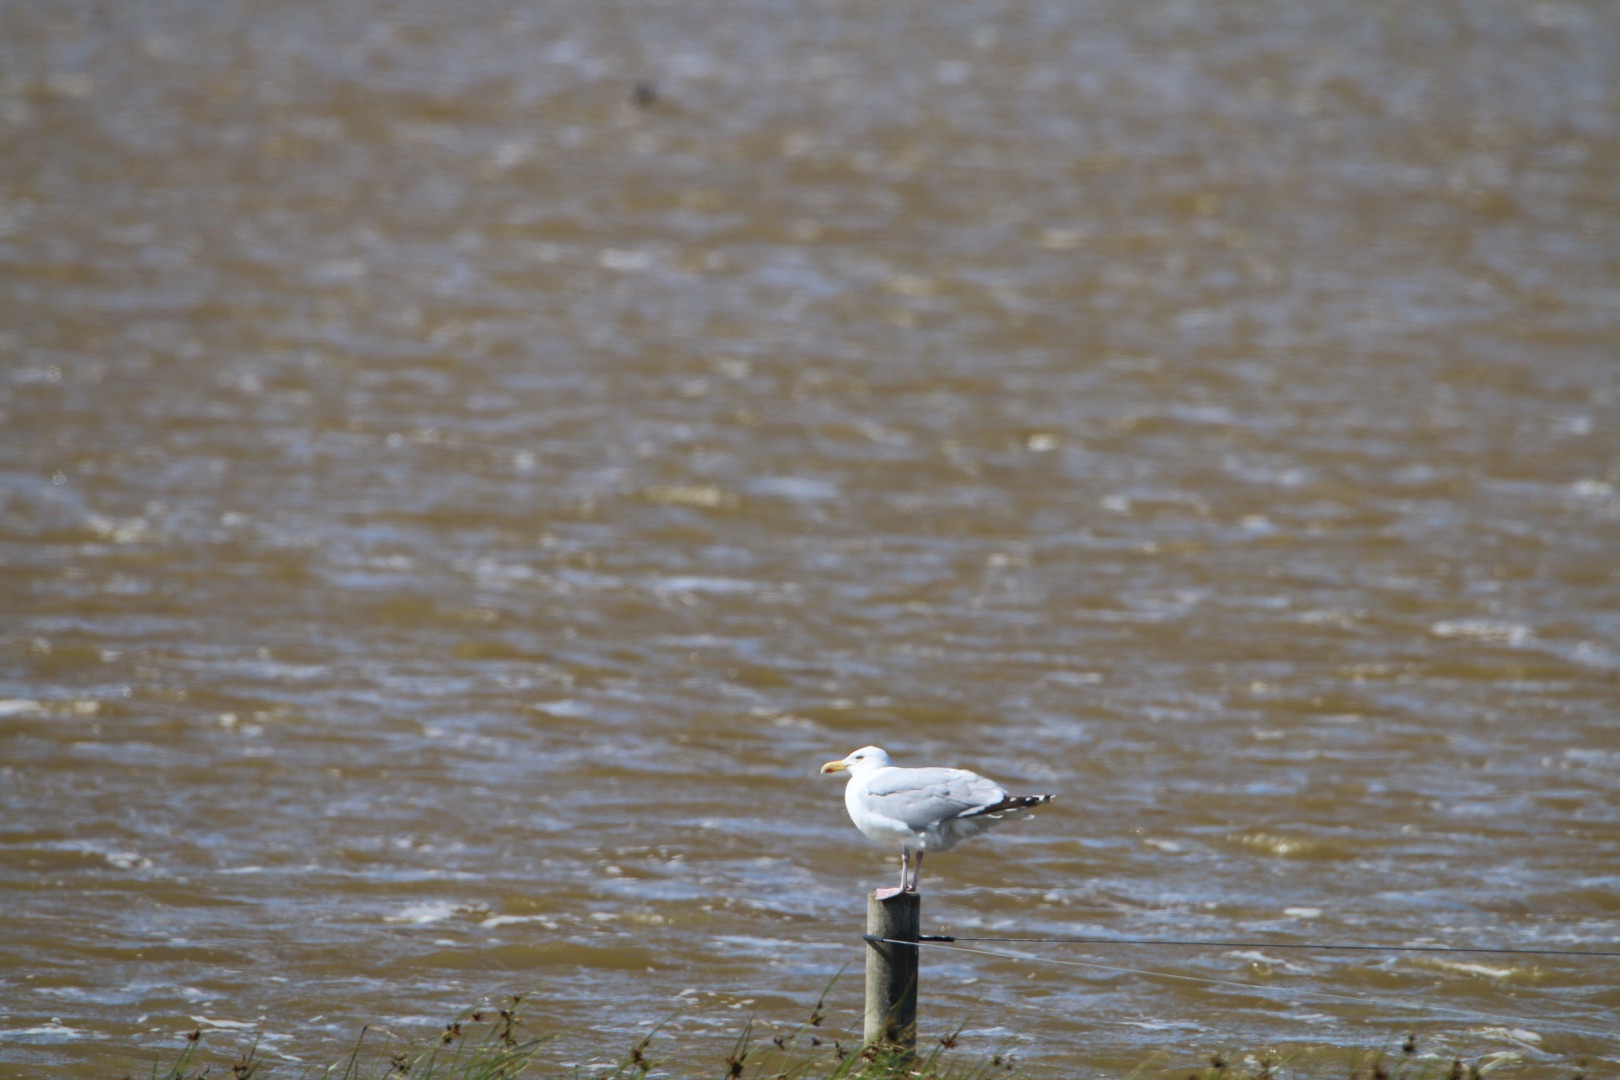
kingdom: Animalia
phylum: Chordata
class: Aves
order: Charadriiformes
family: Laridae
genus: Larus
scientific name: Larus argentatus
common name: Sølvmåge
